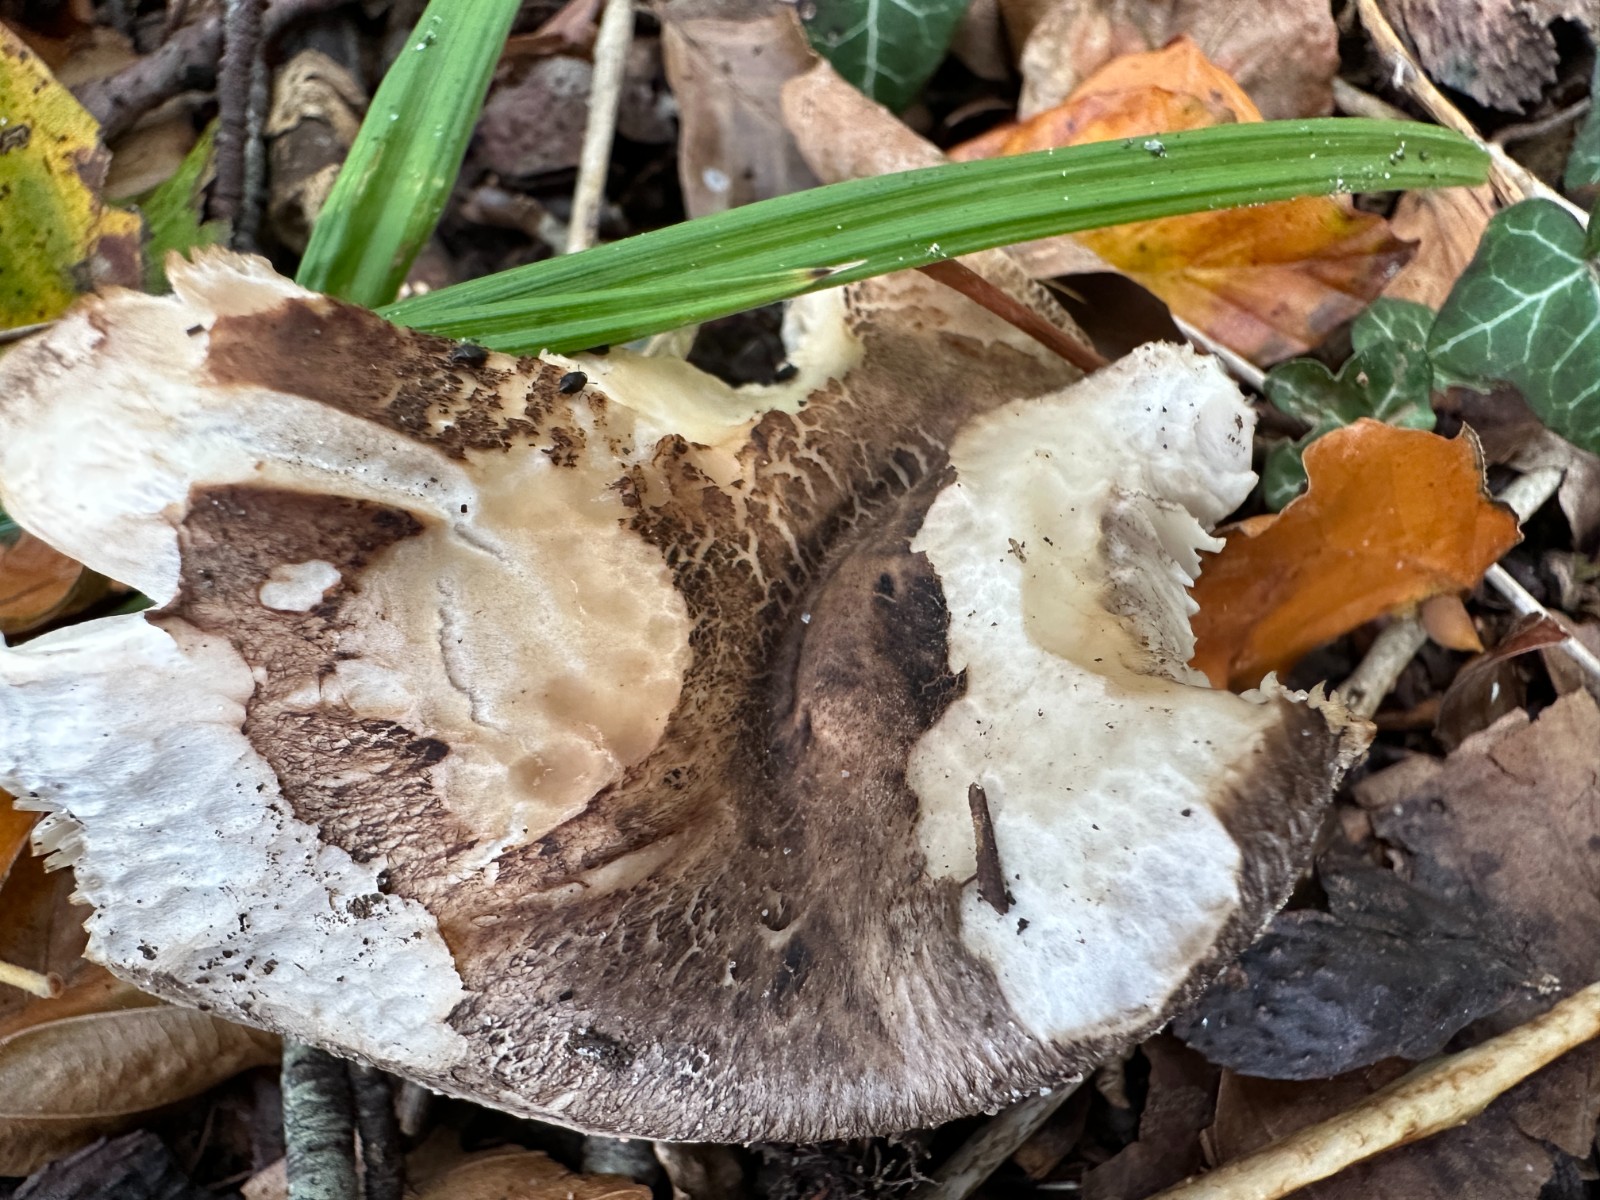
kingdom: Fungi
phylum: Basidiomycota
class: Agaricomycetes
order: Agaricales
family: Tricholomataceae
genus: Tricholoma
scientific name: Tricholoma atrosquamosum
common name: sortskællet ridderhat
